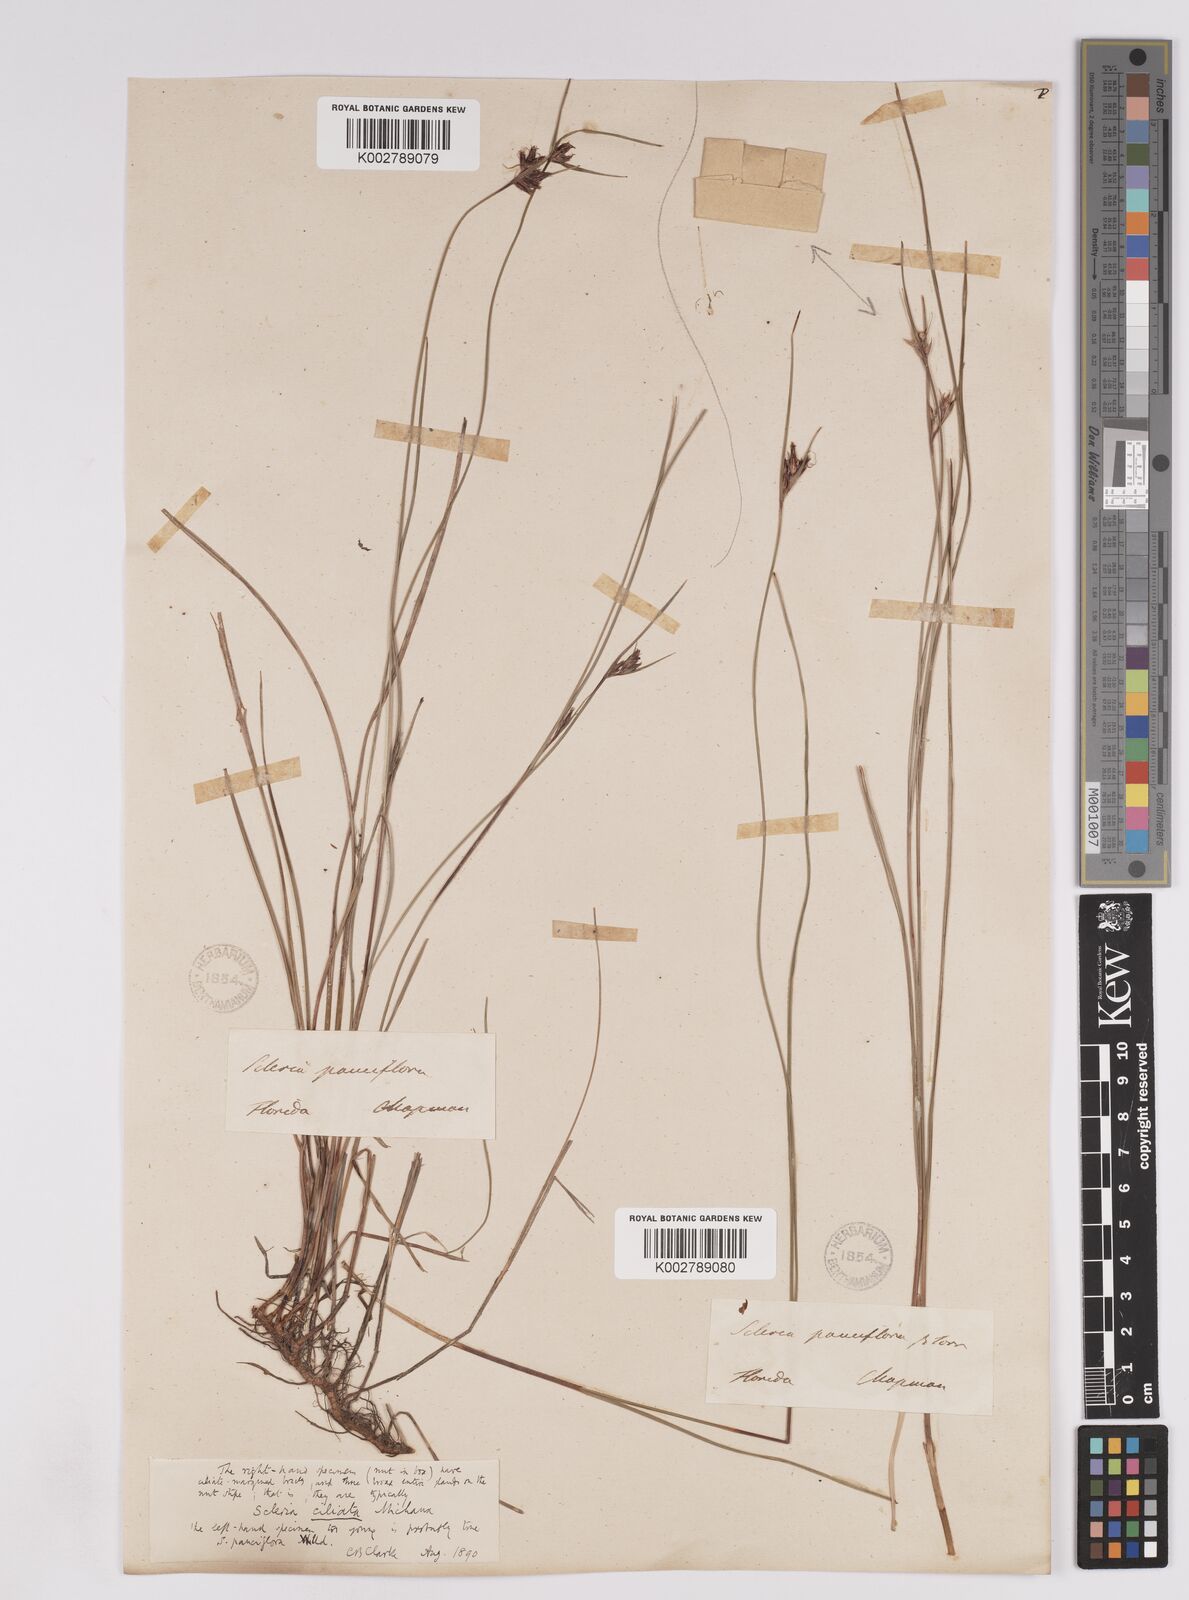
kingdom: Plantae
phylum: Tracheophyta
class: Liliopsida
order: Poales
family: Cyperaceae
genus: Scleria
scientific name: Scleria ciliata
